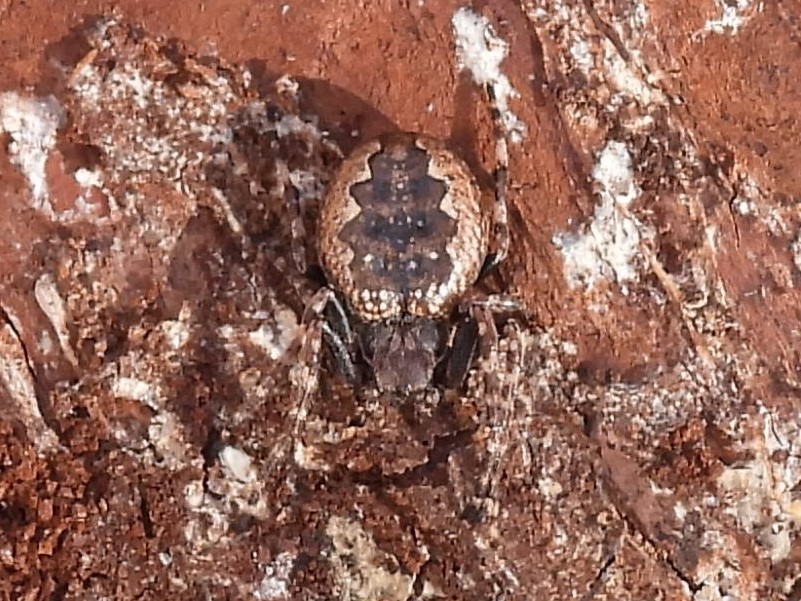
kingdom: Animalia
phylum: Arthropoda
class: Arachnida
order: Araneae
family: Araneidae
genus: Nuctenea
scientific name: Nuctenea umbratica
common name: Flad hjulspinder
